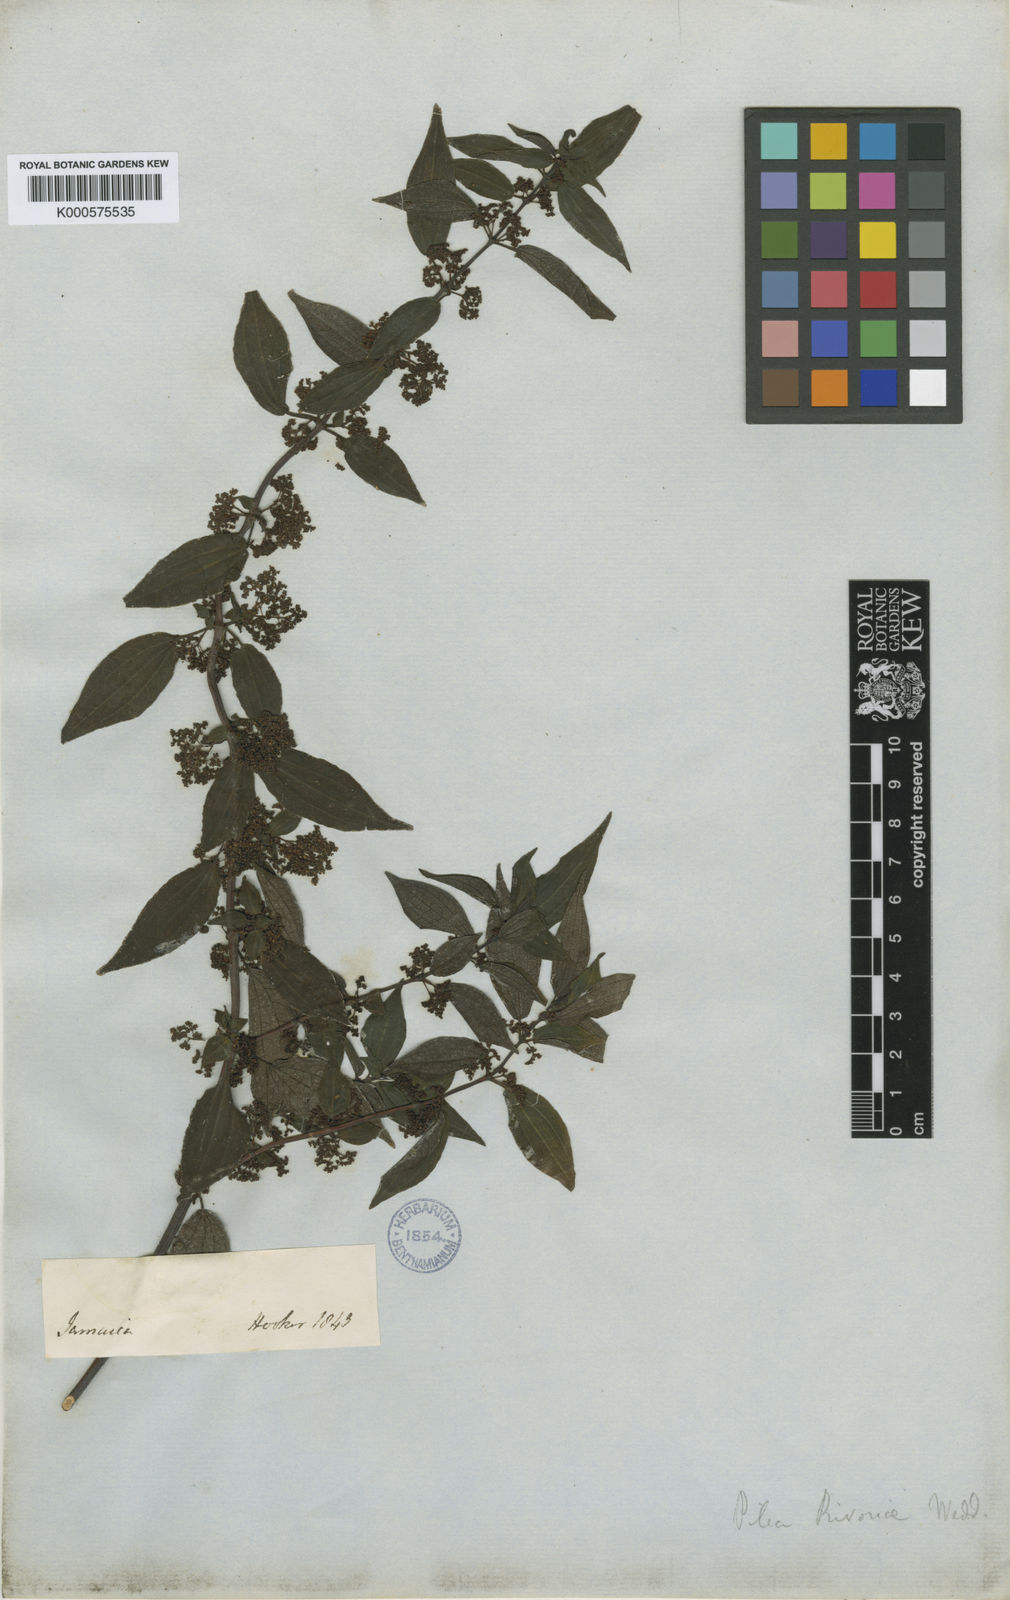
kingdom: Plantae
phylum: Tracheophyta
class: Magnoliopsida
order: Rosales
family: Urticaceae
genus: Pilea
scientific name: Pilea parietaria
